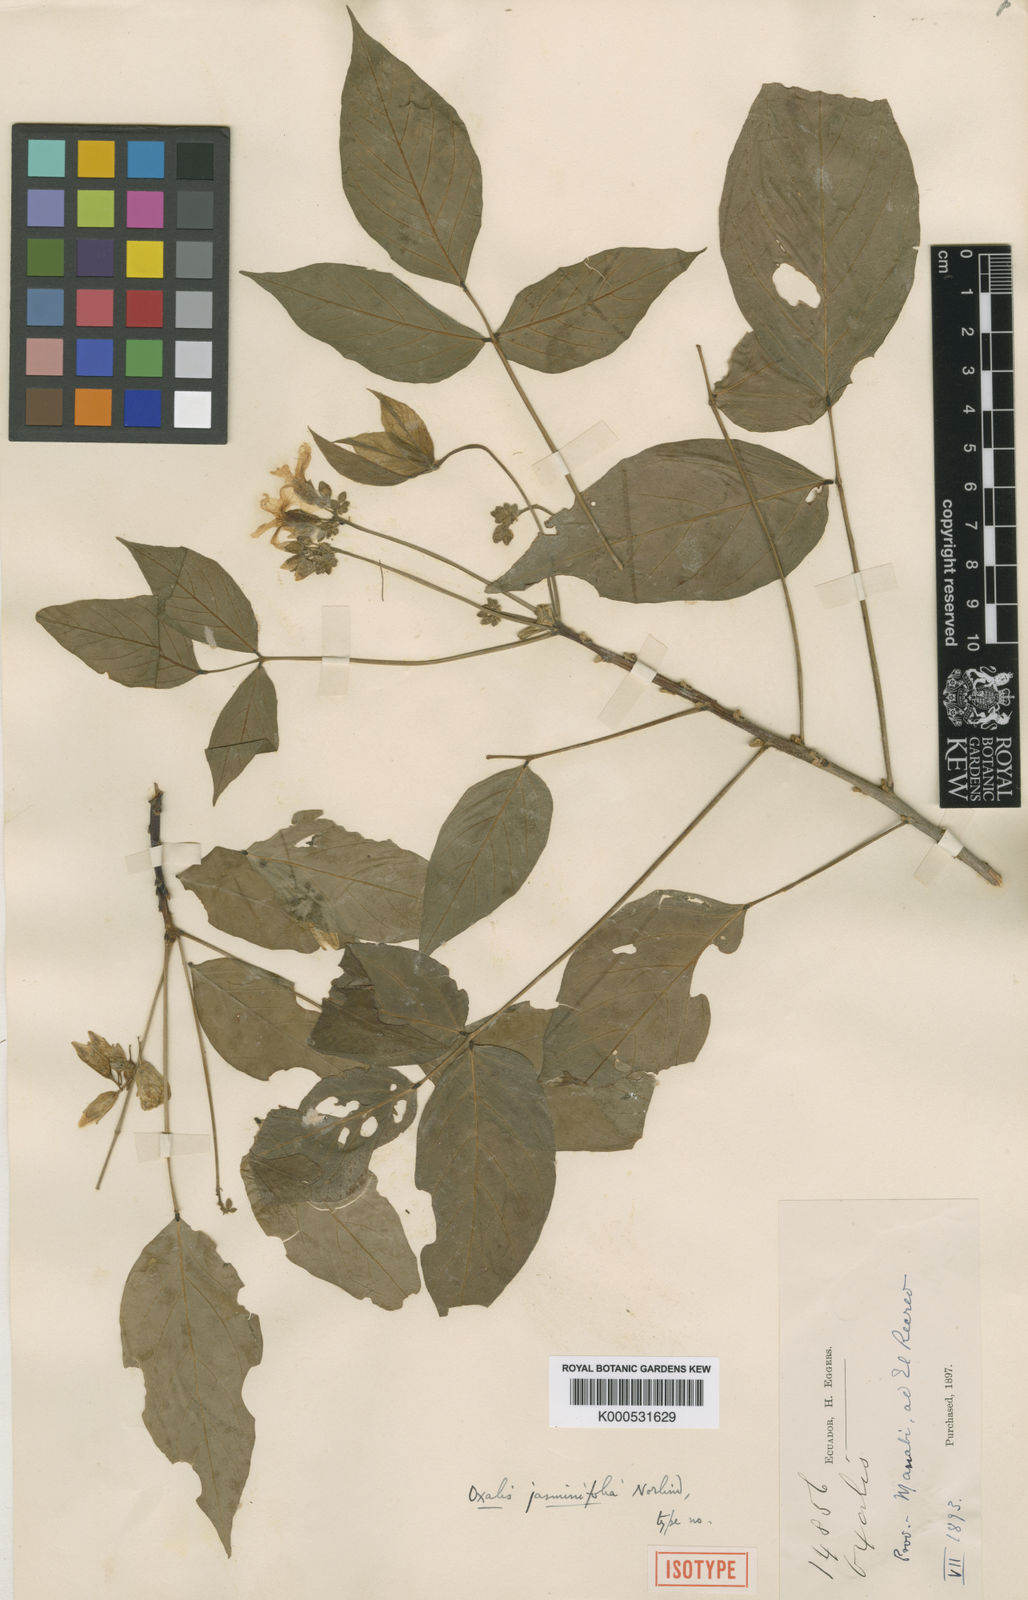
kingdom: Plantae
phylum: Tracheophyta
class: Magnoliopsida
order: Oxalidales
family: Oxalidaceae
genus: Oxalis
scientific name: Oxalis jasminifolia
